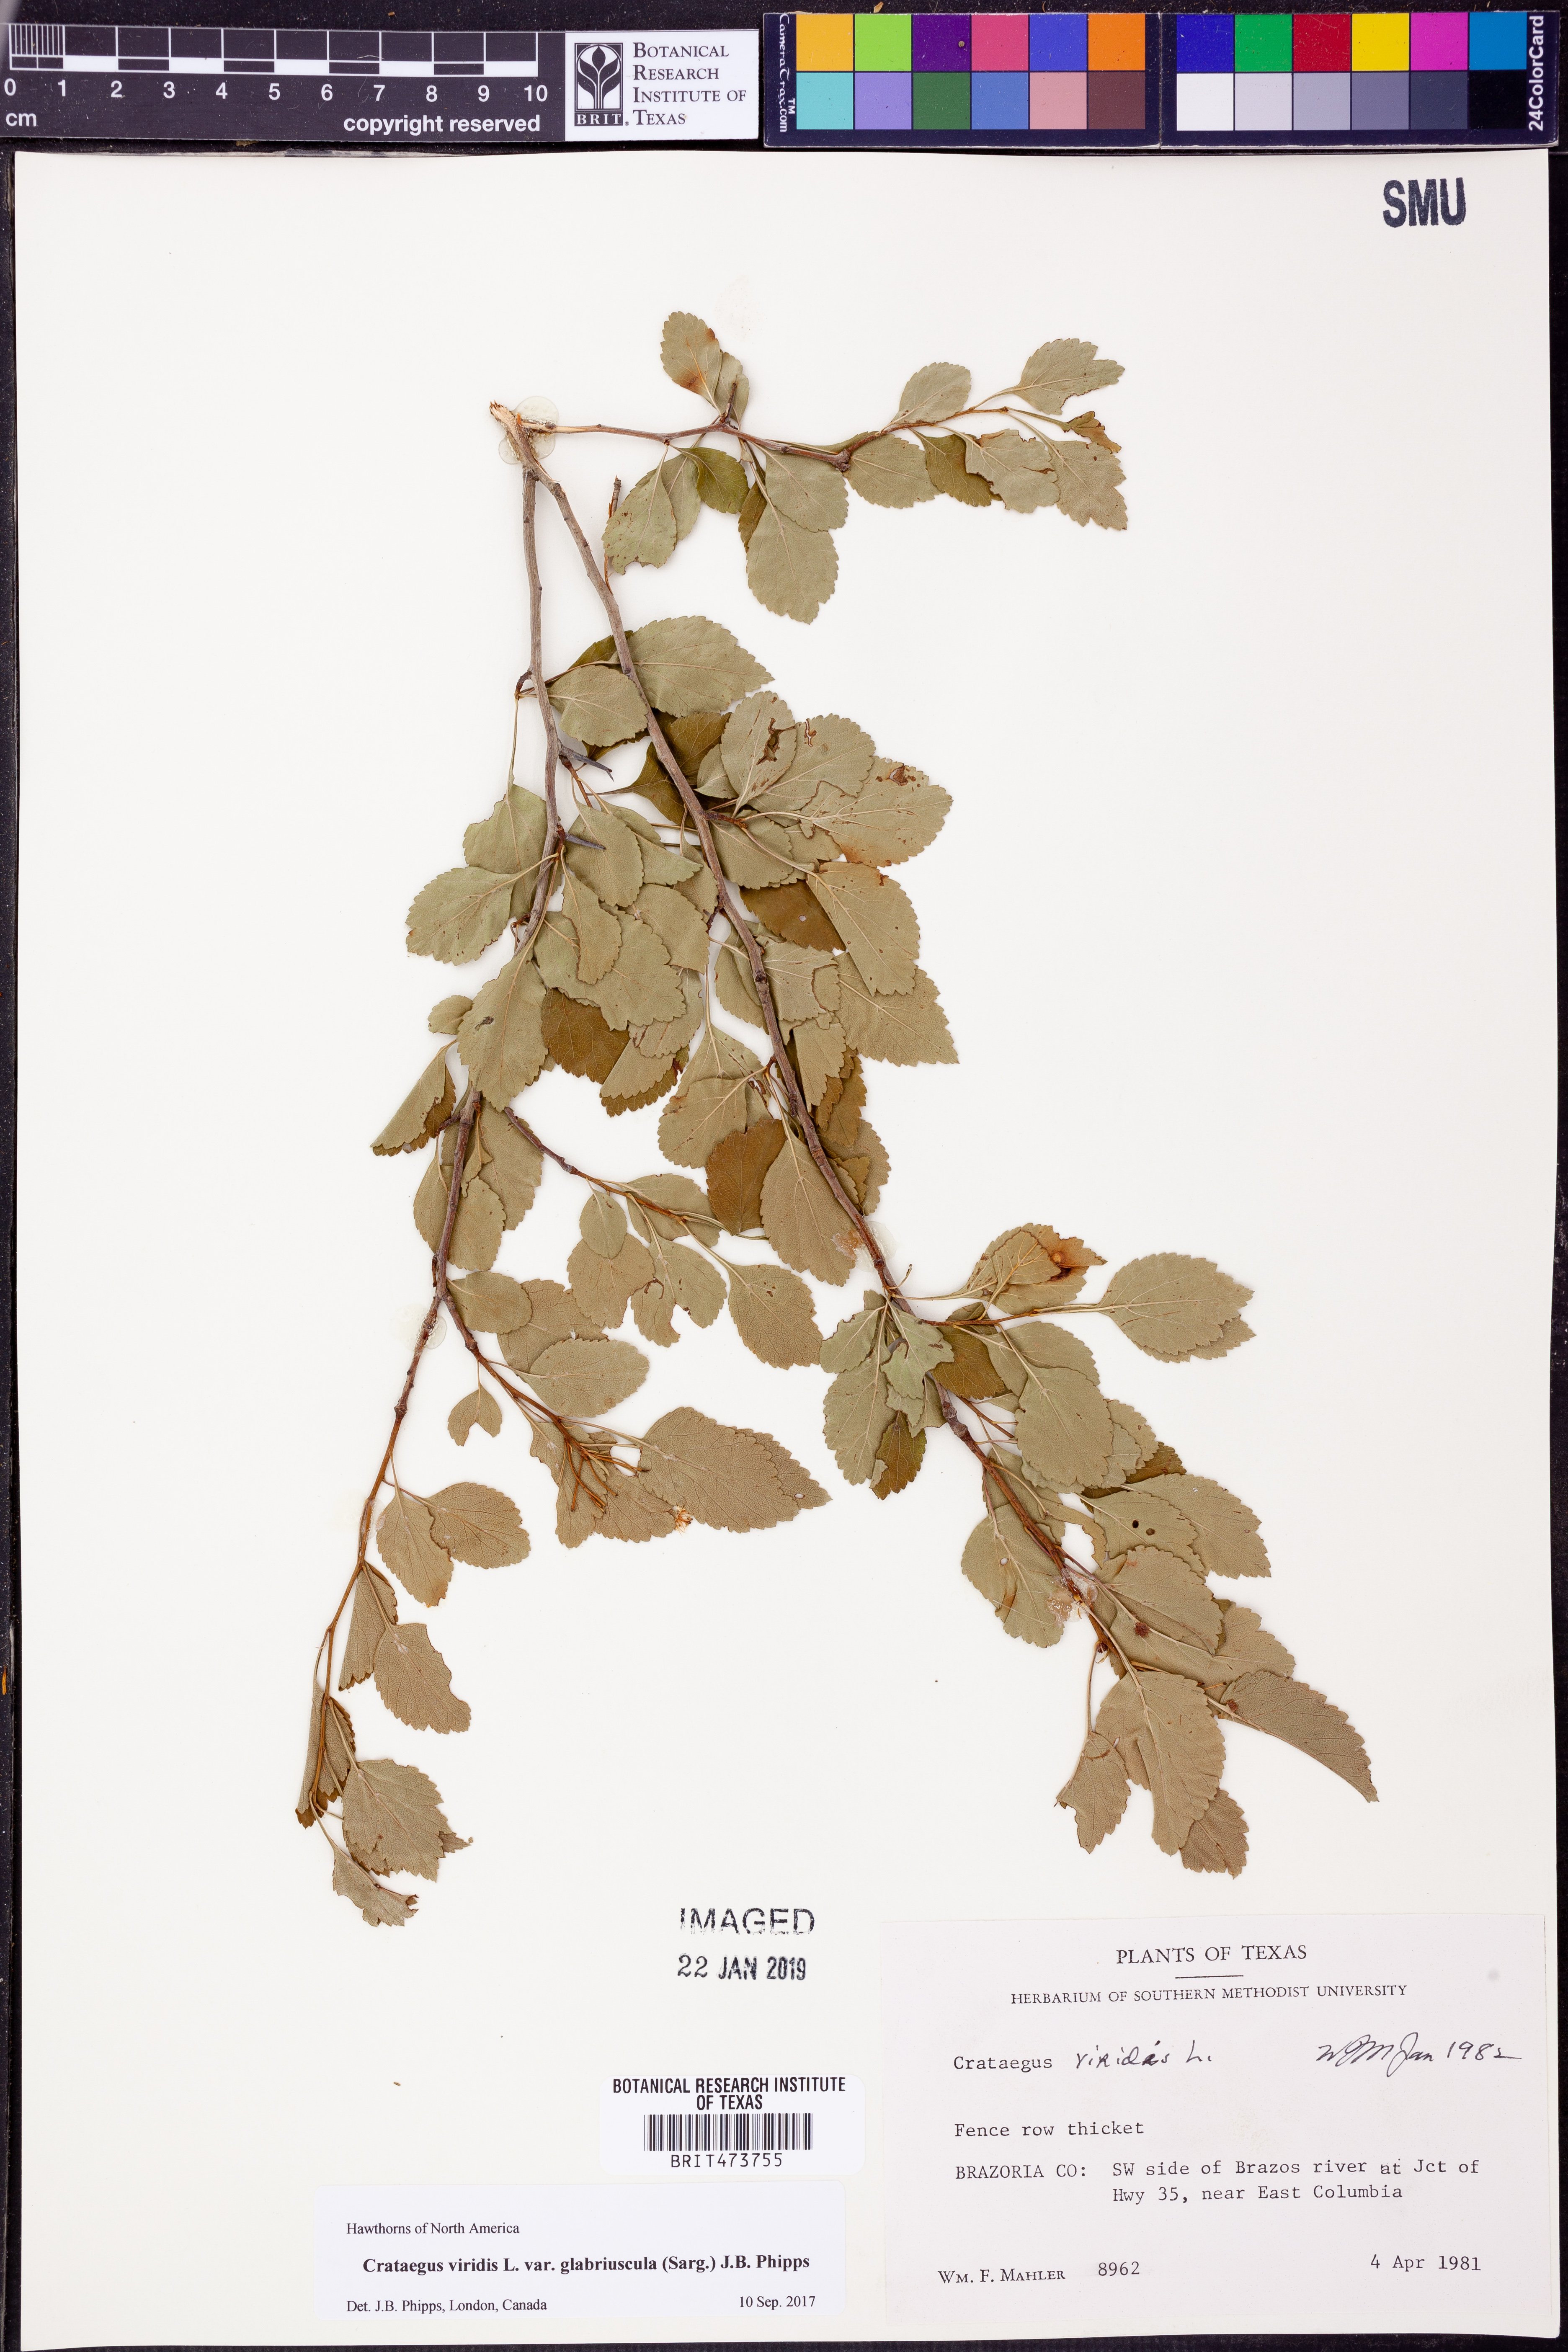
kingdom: Plantae
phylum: Tracheophyta
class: Magnoliopsida
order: Rosales
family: Rosaceae
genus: Crataegus
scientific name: Crataegus viridis
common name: Southernthorn
